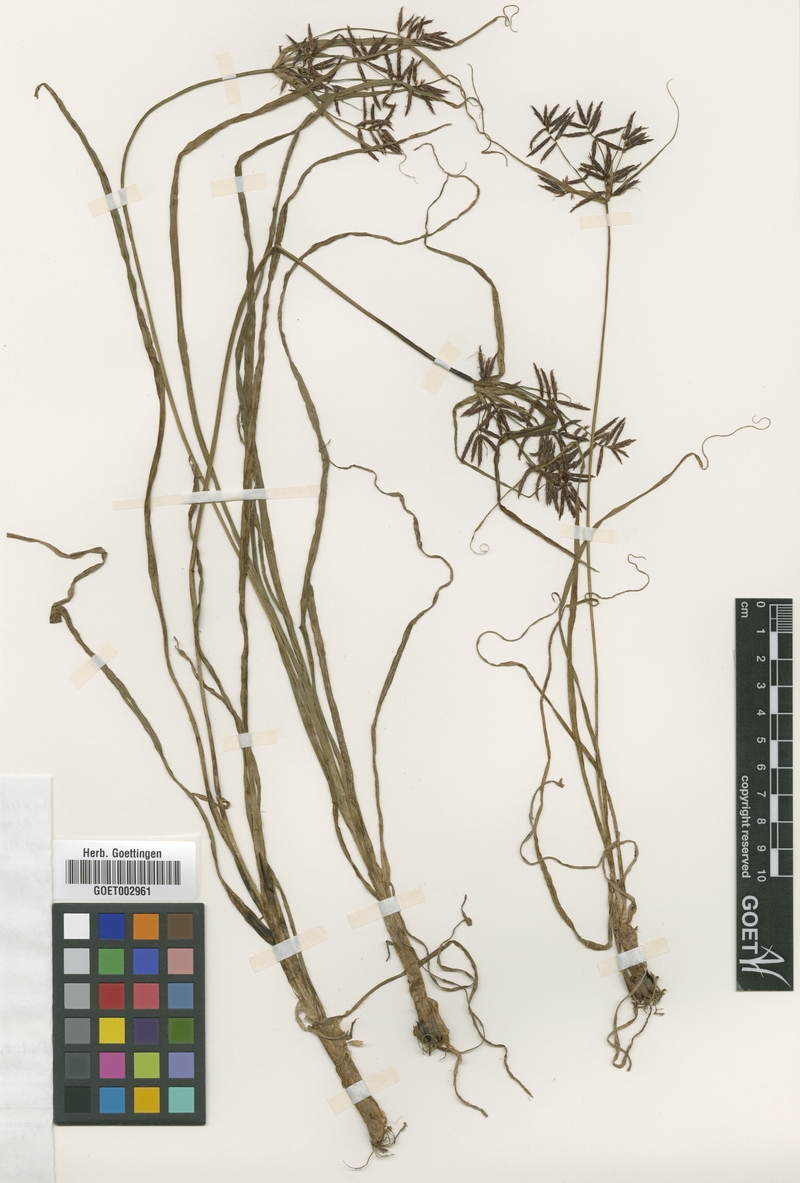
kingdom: Plantae
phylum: Tracheophyta
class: Liliopsida
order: Poales
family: Cyperaceae
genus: Cyperus
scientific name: Cyperus bulbosus
